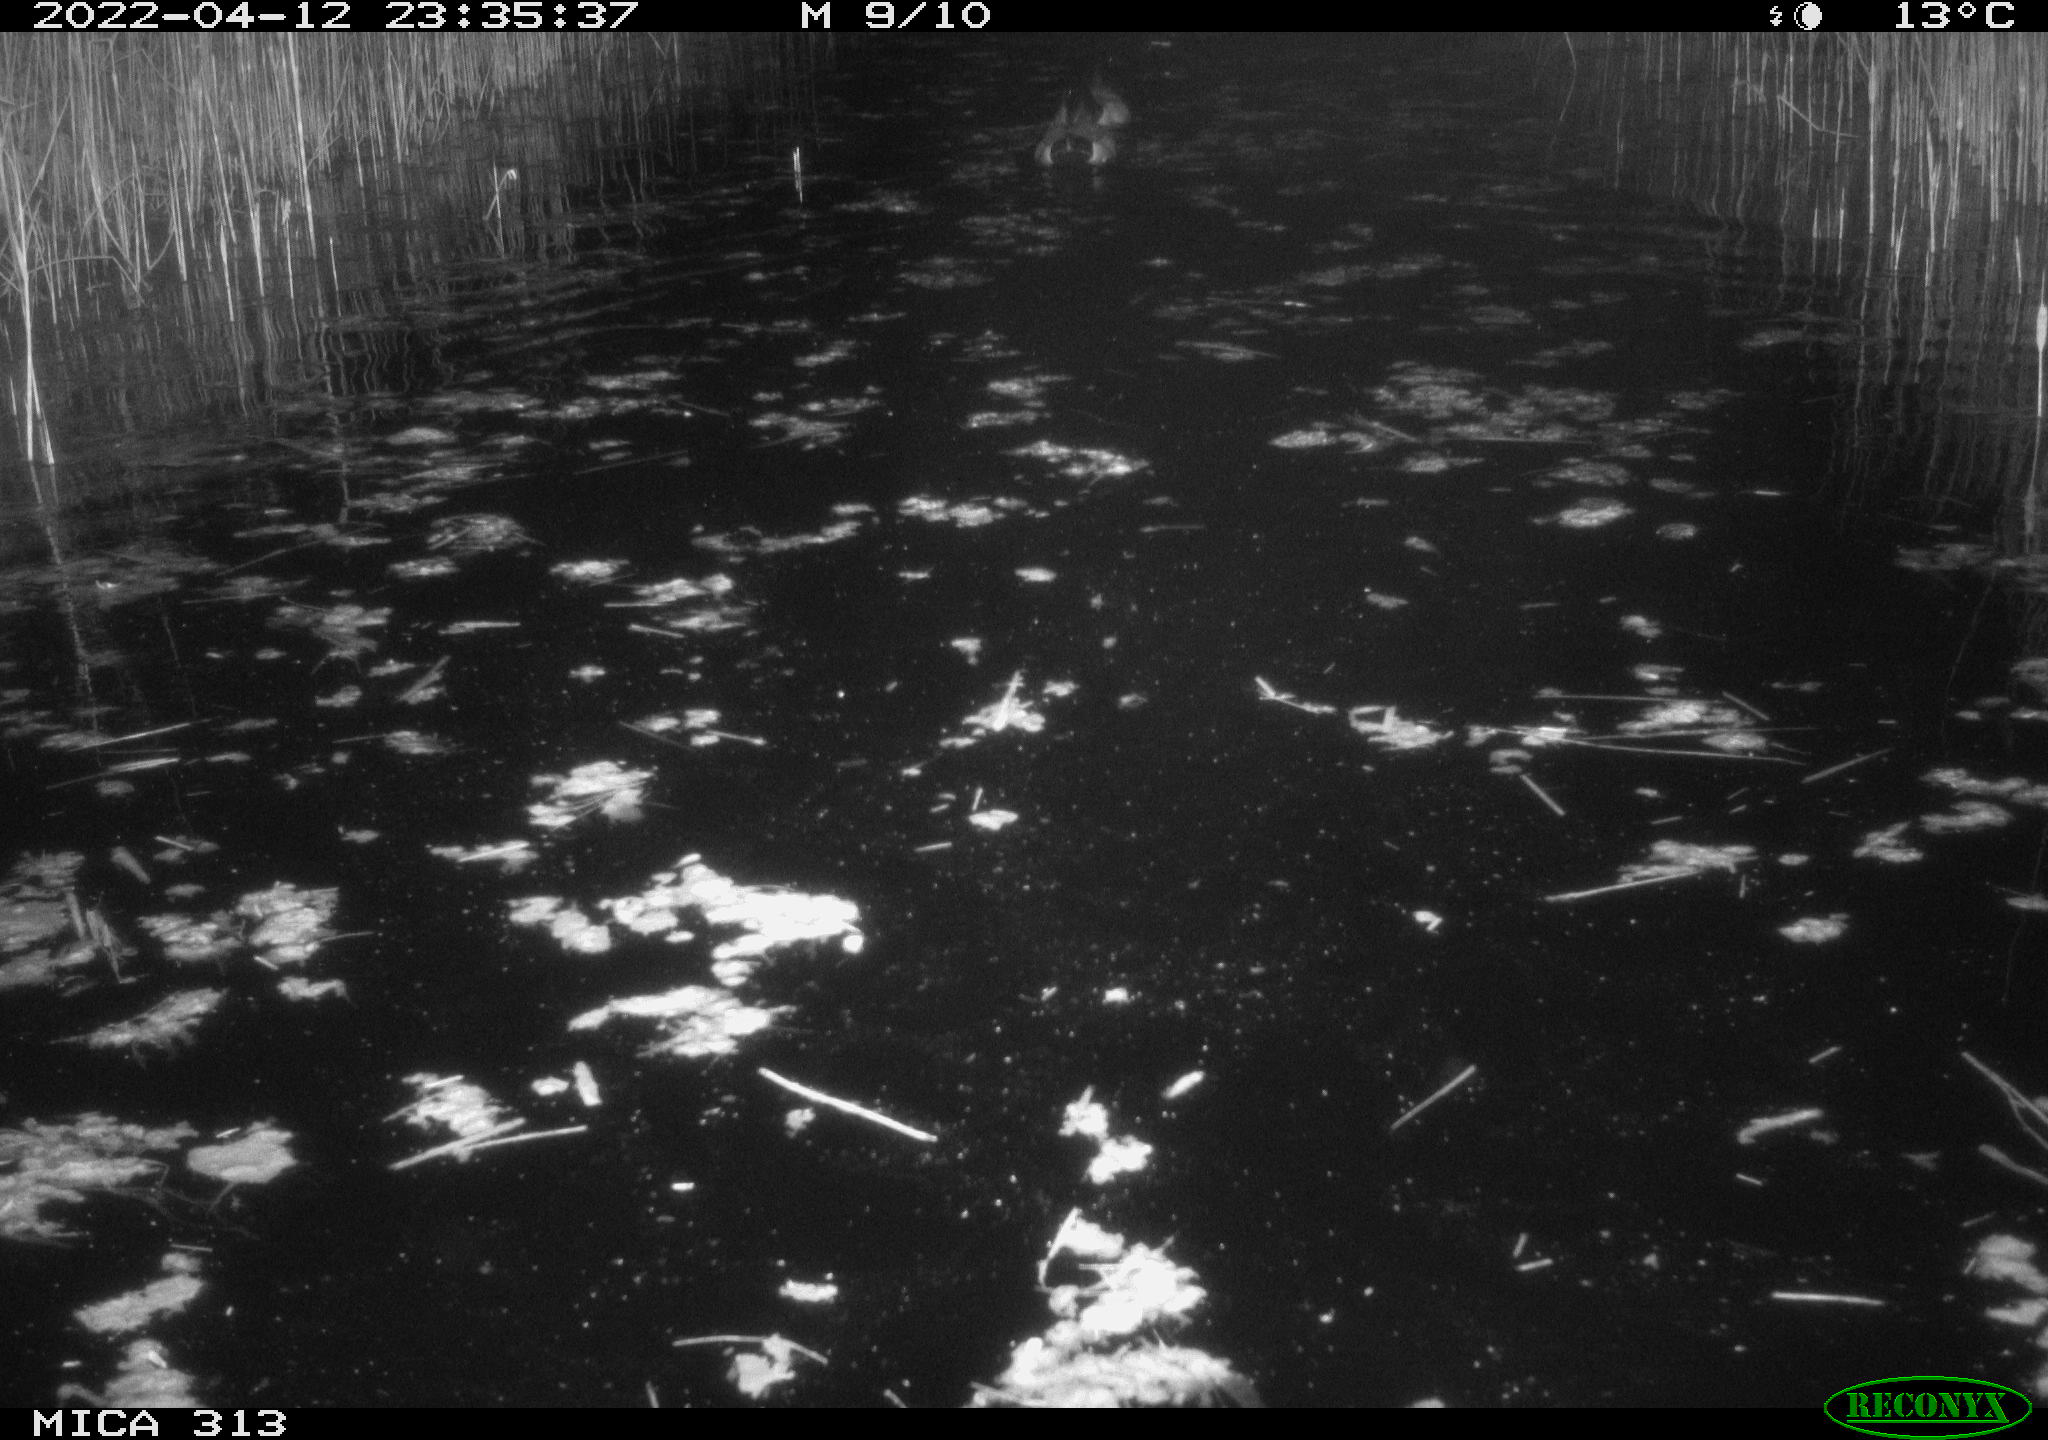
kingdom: Animalia
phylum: Chordata
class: Aves
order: Anseriformes
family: Anatidae
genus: Anas
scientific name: Anas platyrhynchos
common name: Mallard
